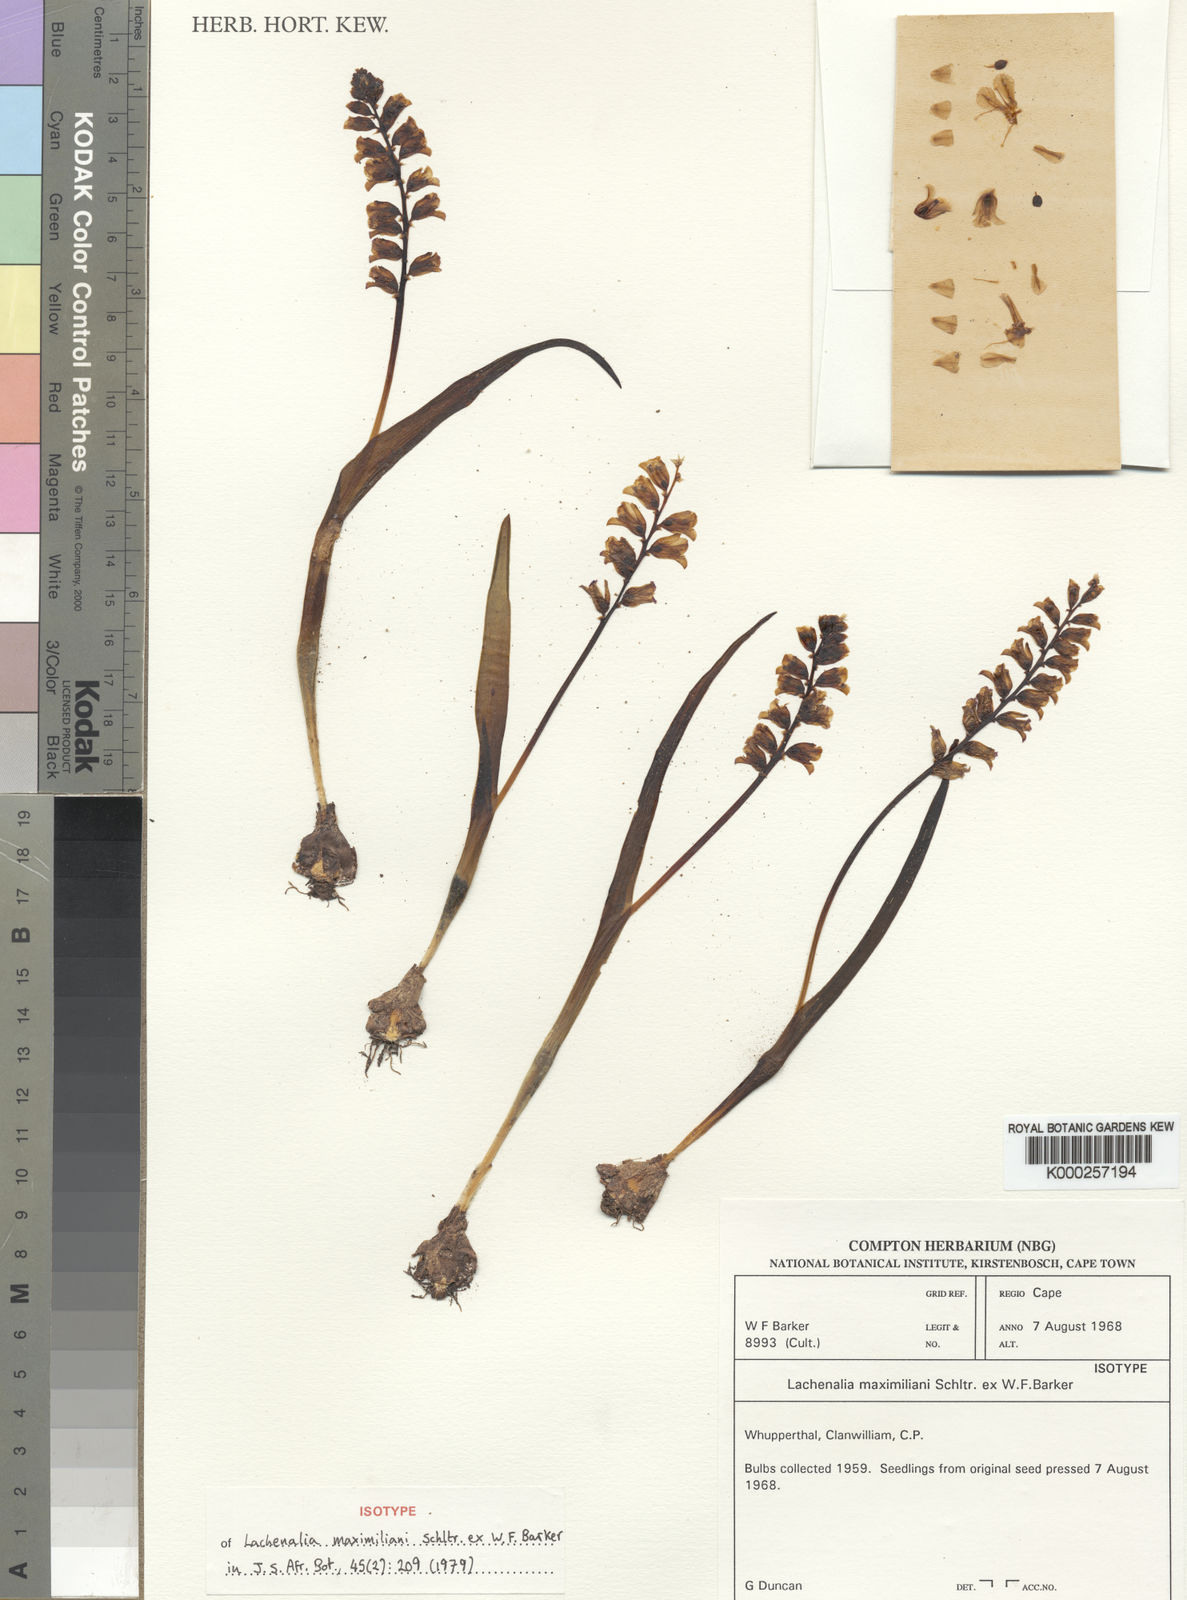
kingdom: Plantae
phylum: Tracheophyta
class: Liliopsida
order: Asparagales
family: Asparagaceae
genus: Lachenalia
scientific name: Lachenalia maximiliani
